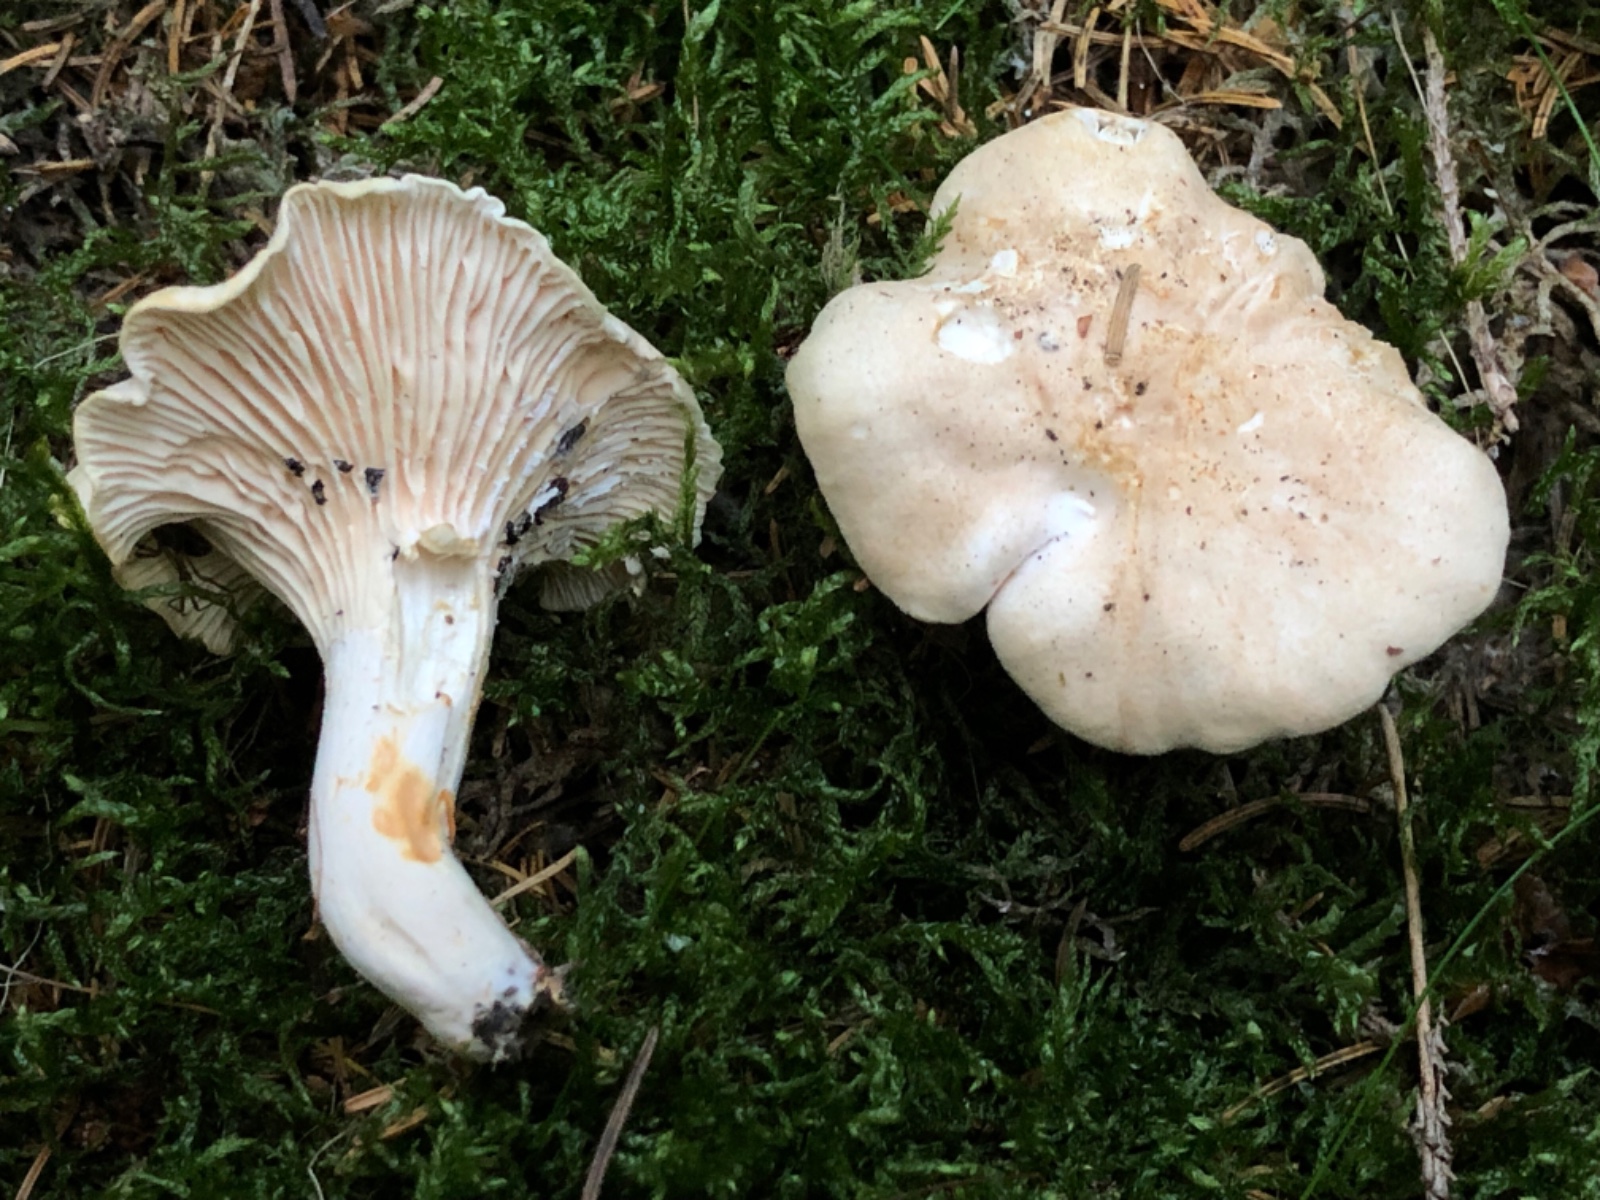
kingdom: Fungi
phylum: Basidiomycota
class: Agaricomycetes
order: Cantharellales
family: Hydnaceae
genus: Cantharellus
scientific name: Cantharellus
